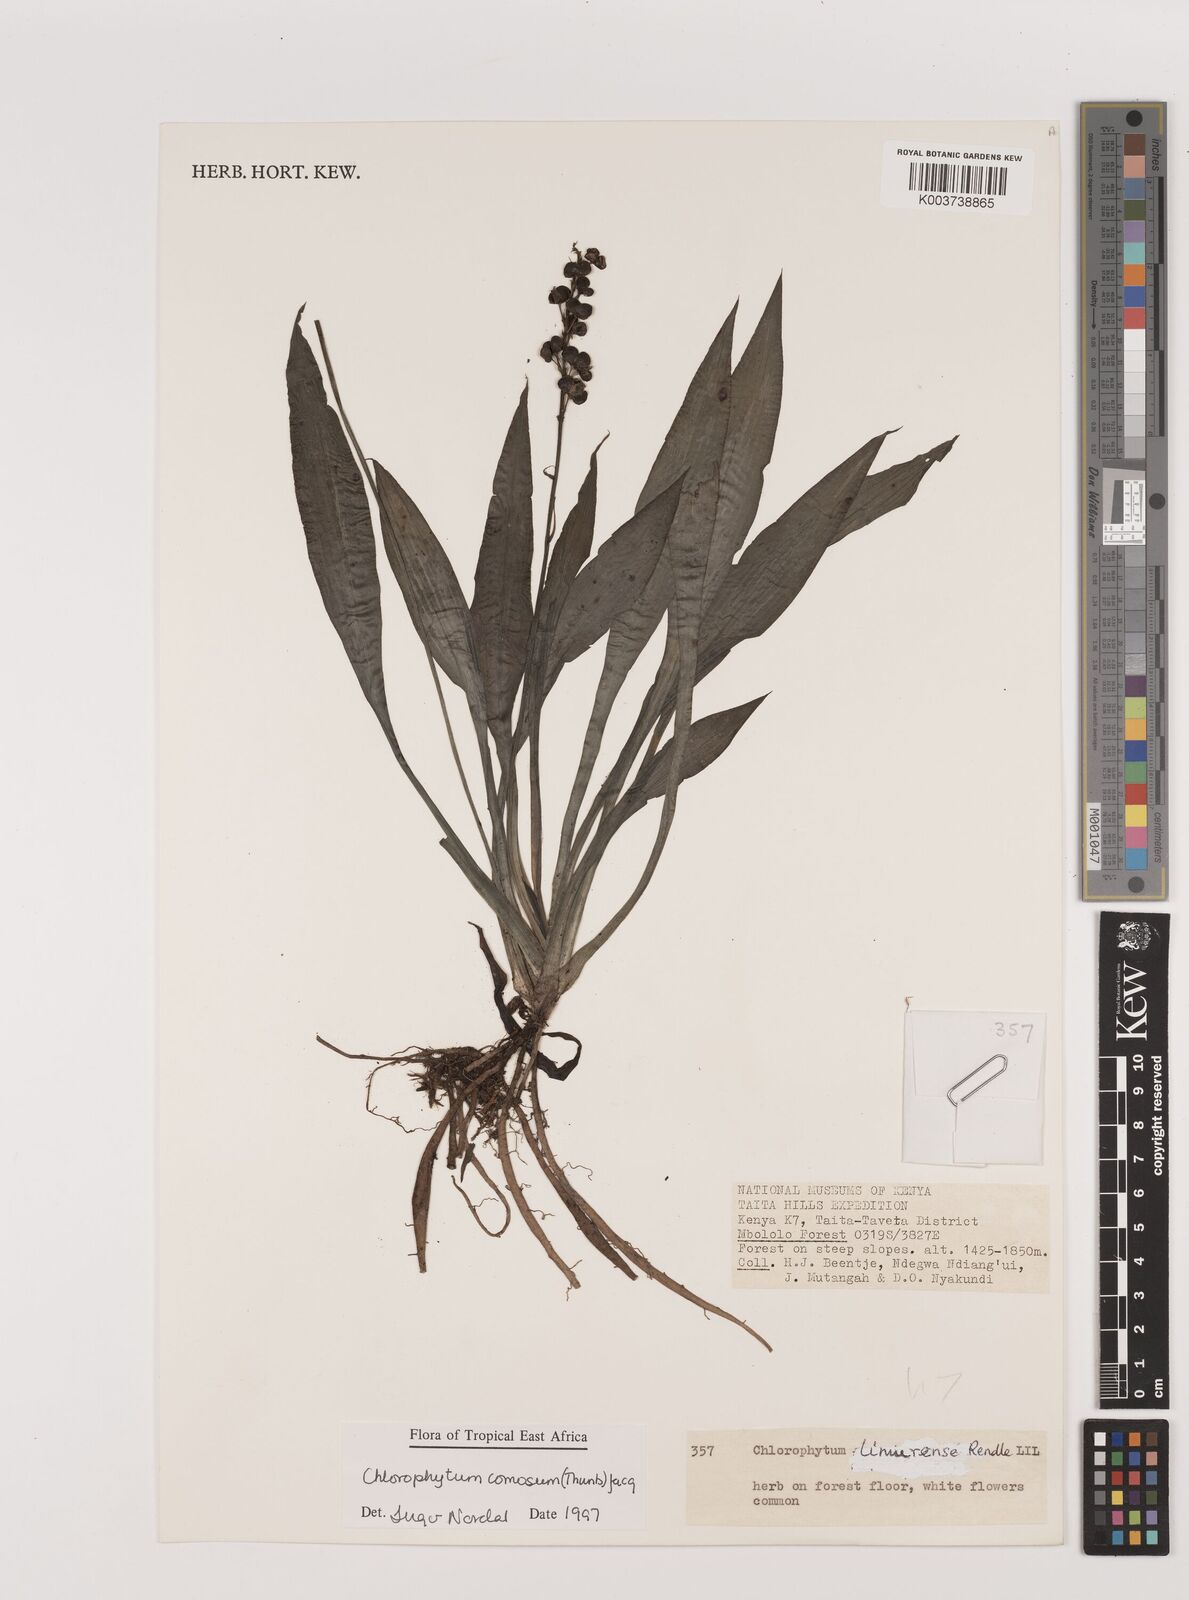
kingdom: Plantae
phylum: Tracheophyta
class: Liliopsida
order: Asparagales
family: Asparagaceae
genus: Chlorophytum
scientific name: Chlorophytum comosum
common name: Spider plant
